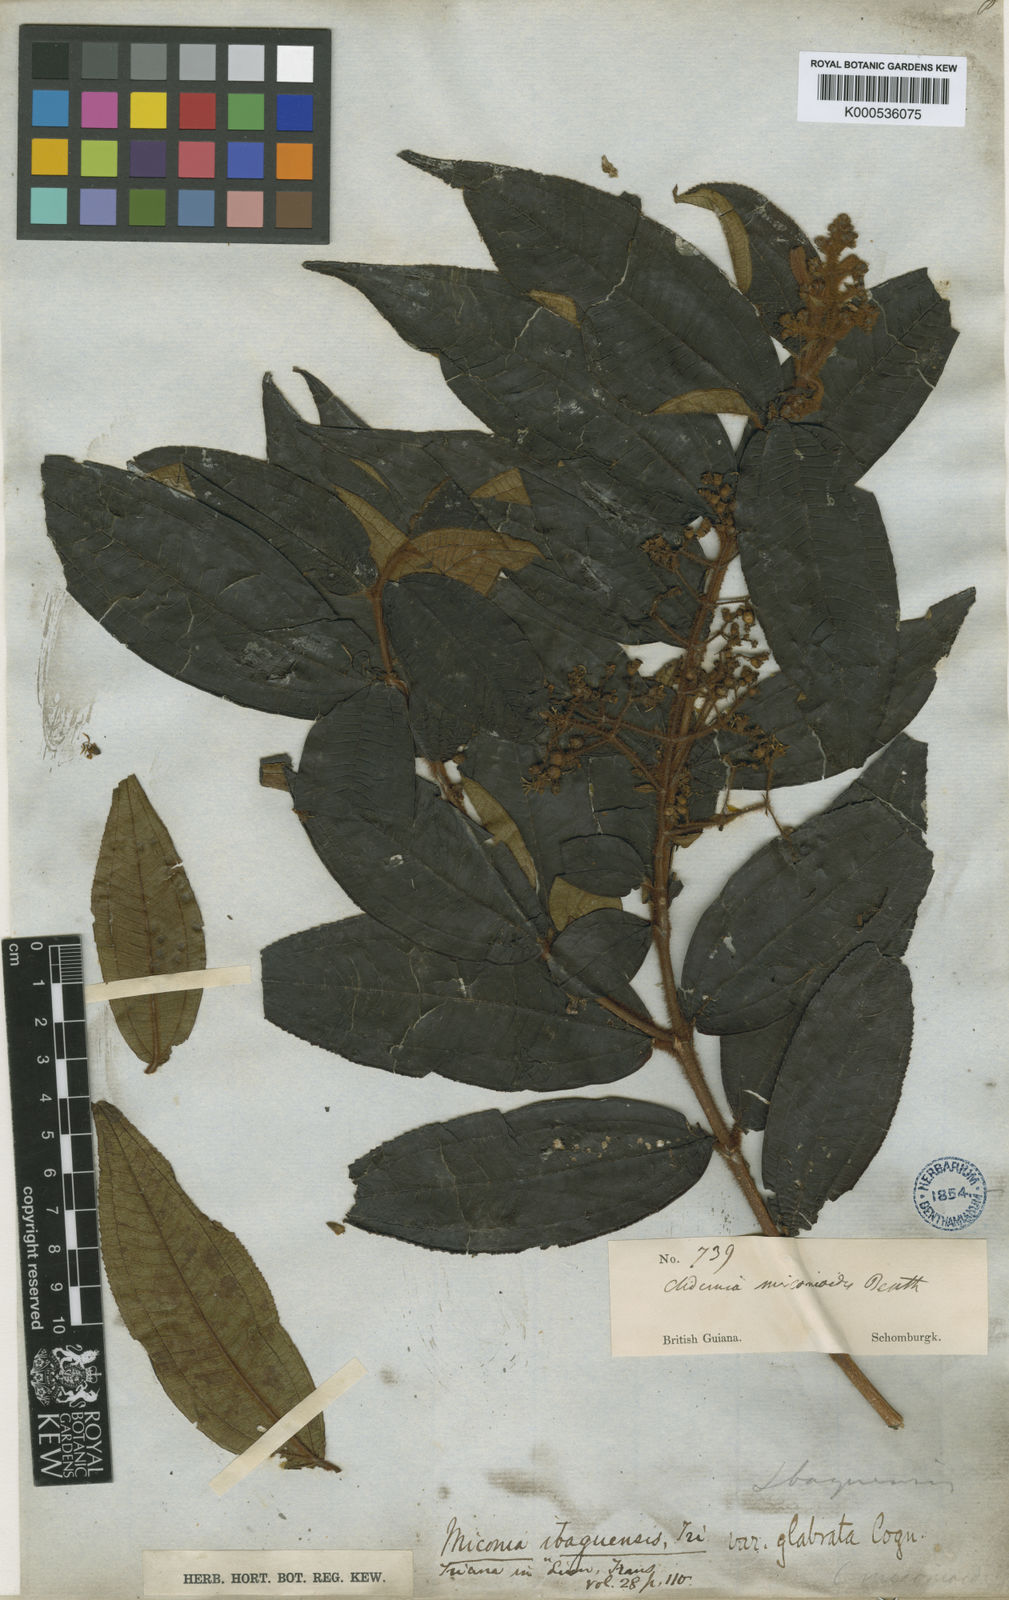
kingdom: Plantae
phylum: Tracheophyta
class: Magnoliopsida
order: Myrtales
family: Melastomataceae
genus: Miconia
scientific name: Miconia ibaguensis
